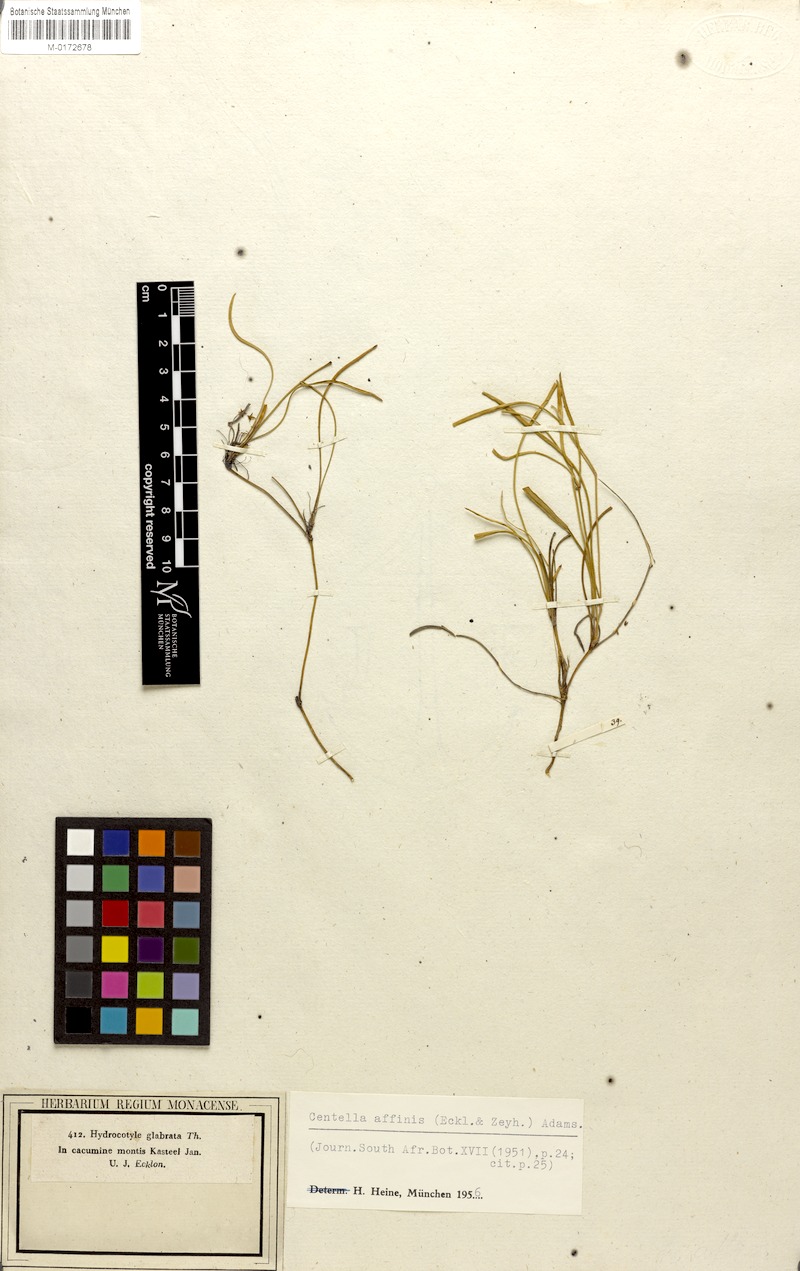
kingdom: Plantae
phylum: Tracheophyta
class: Magnoliopsida
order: Apiales
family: Apiaceae
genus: Centella
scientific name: Centella affinis
